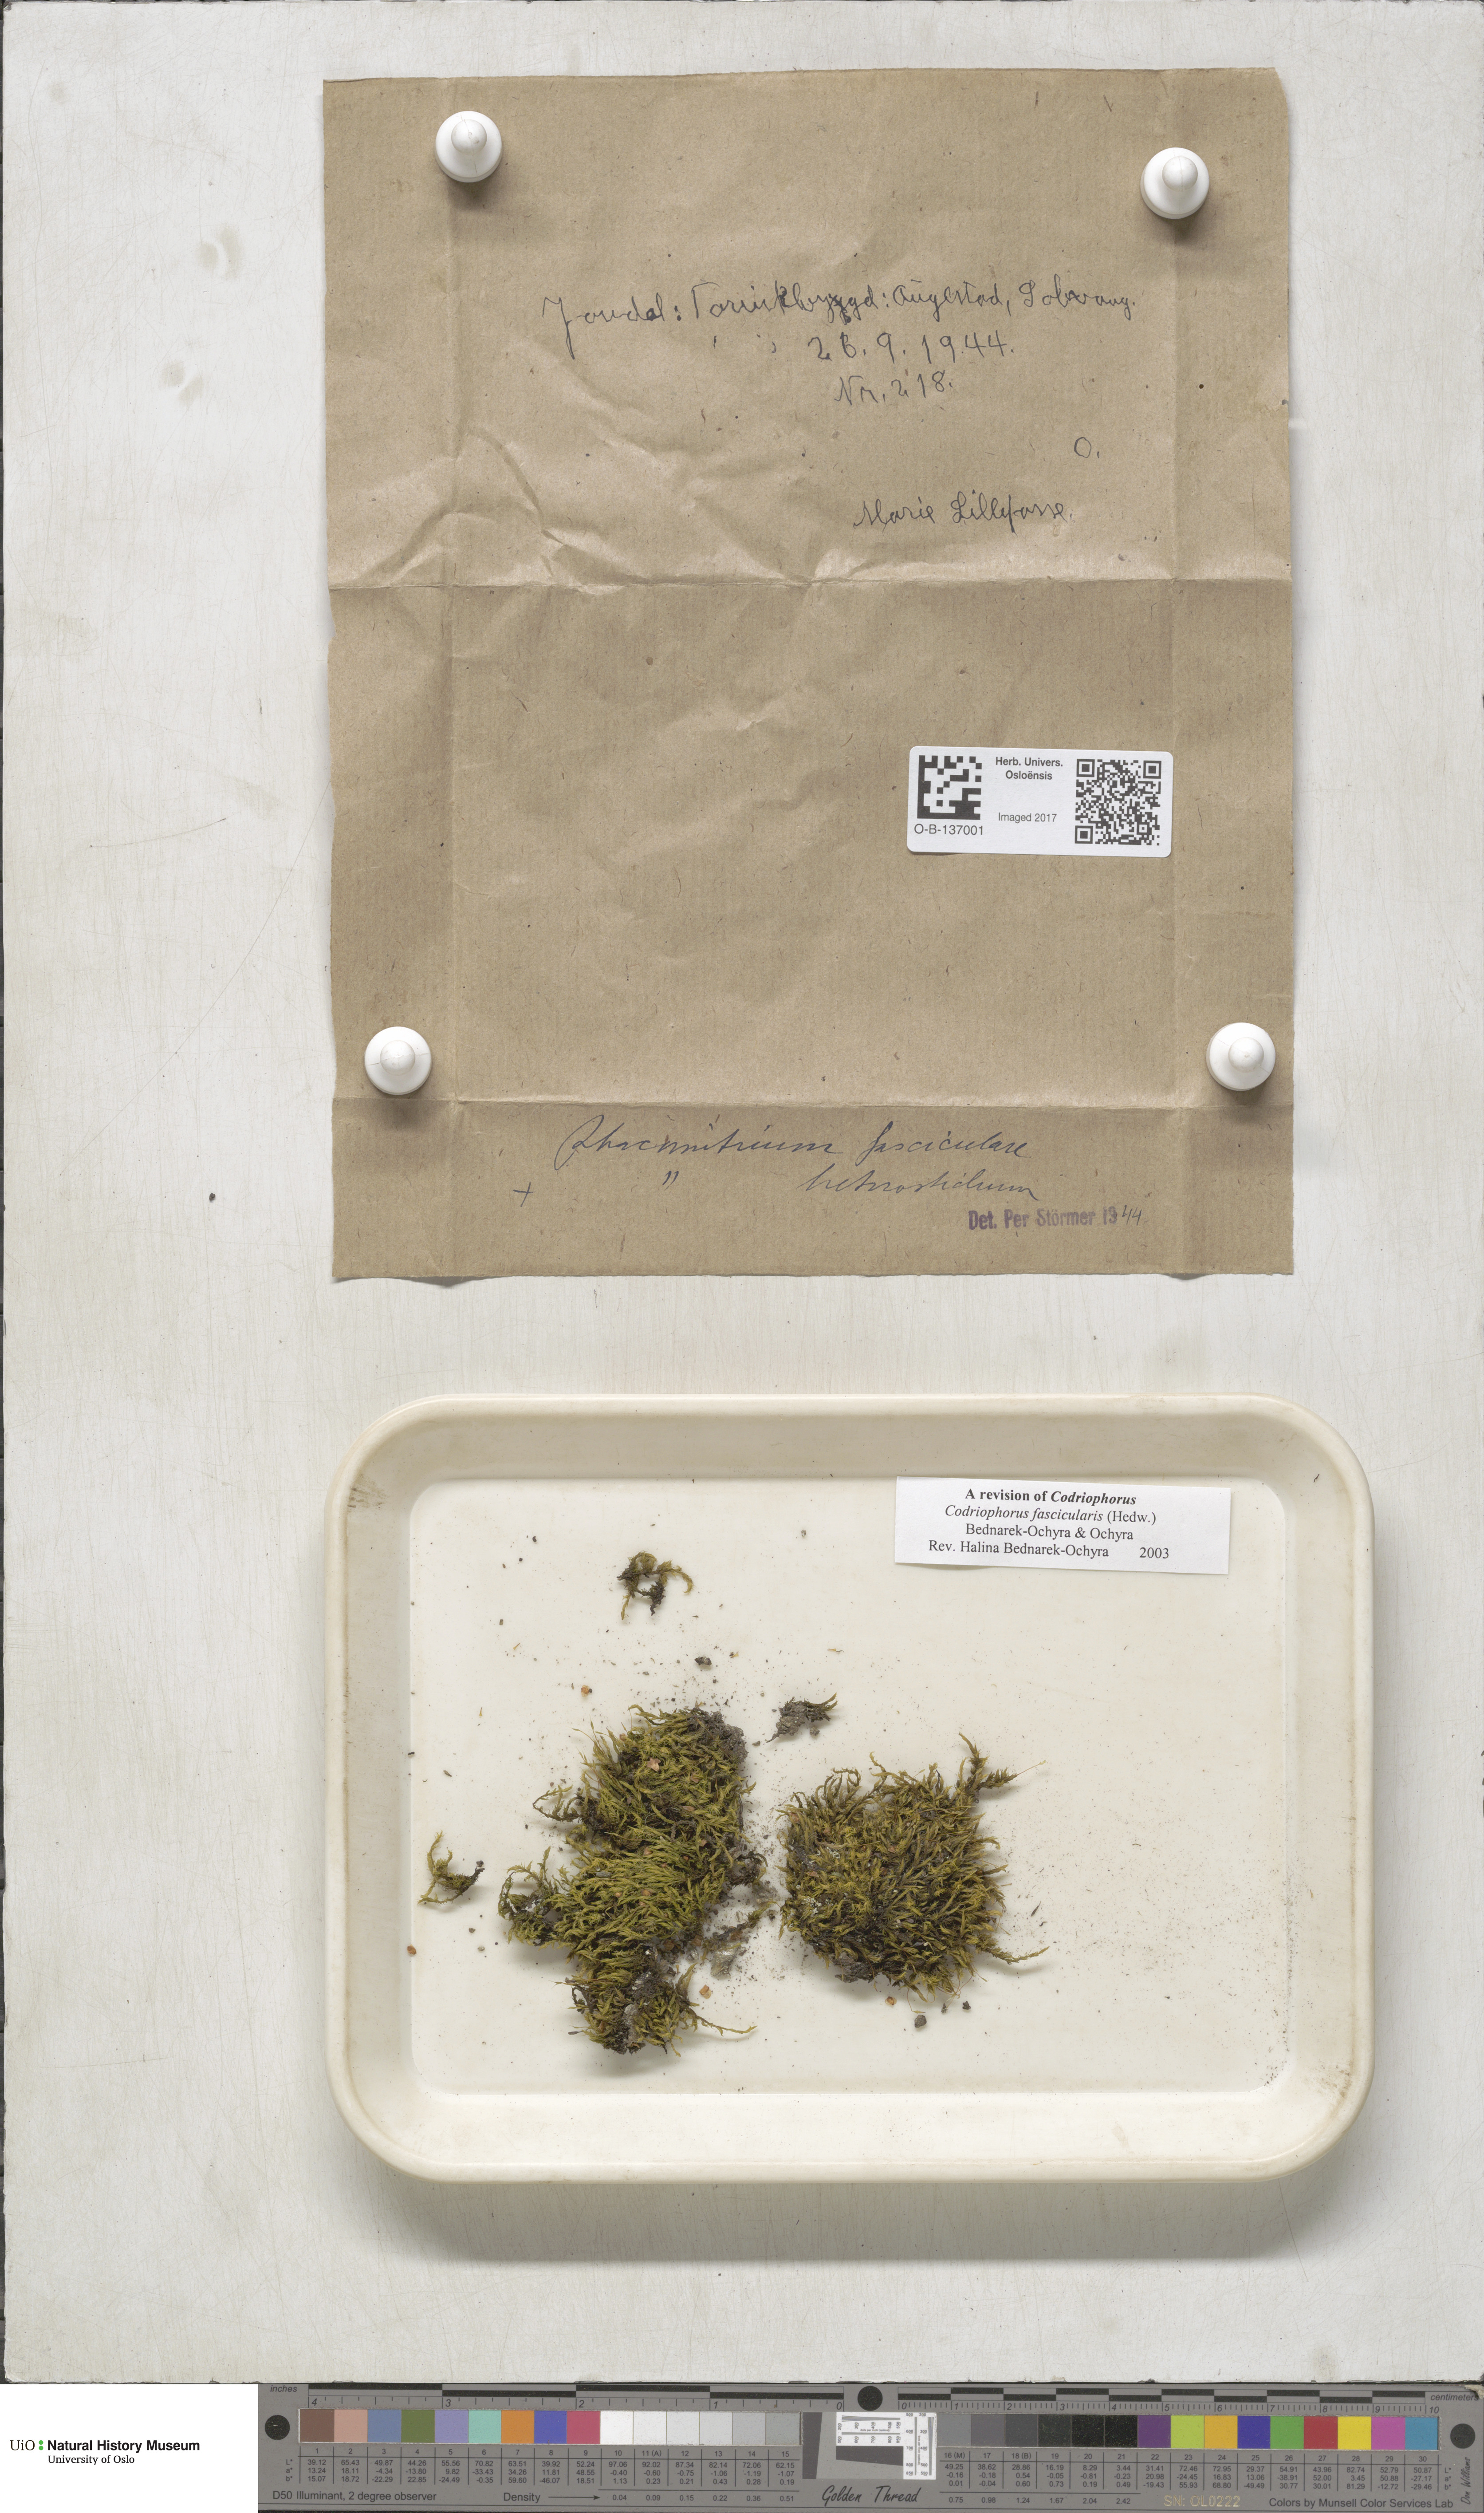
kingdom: Plantae
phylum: Bryophyta
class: Bryopsida
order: Grimmiales
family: Grimmiaceae
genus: Dilutineuron
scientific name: Dilutineuron fasciculare
